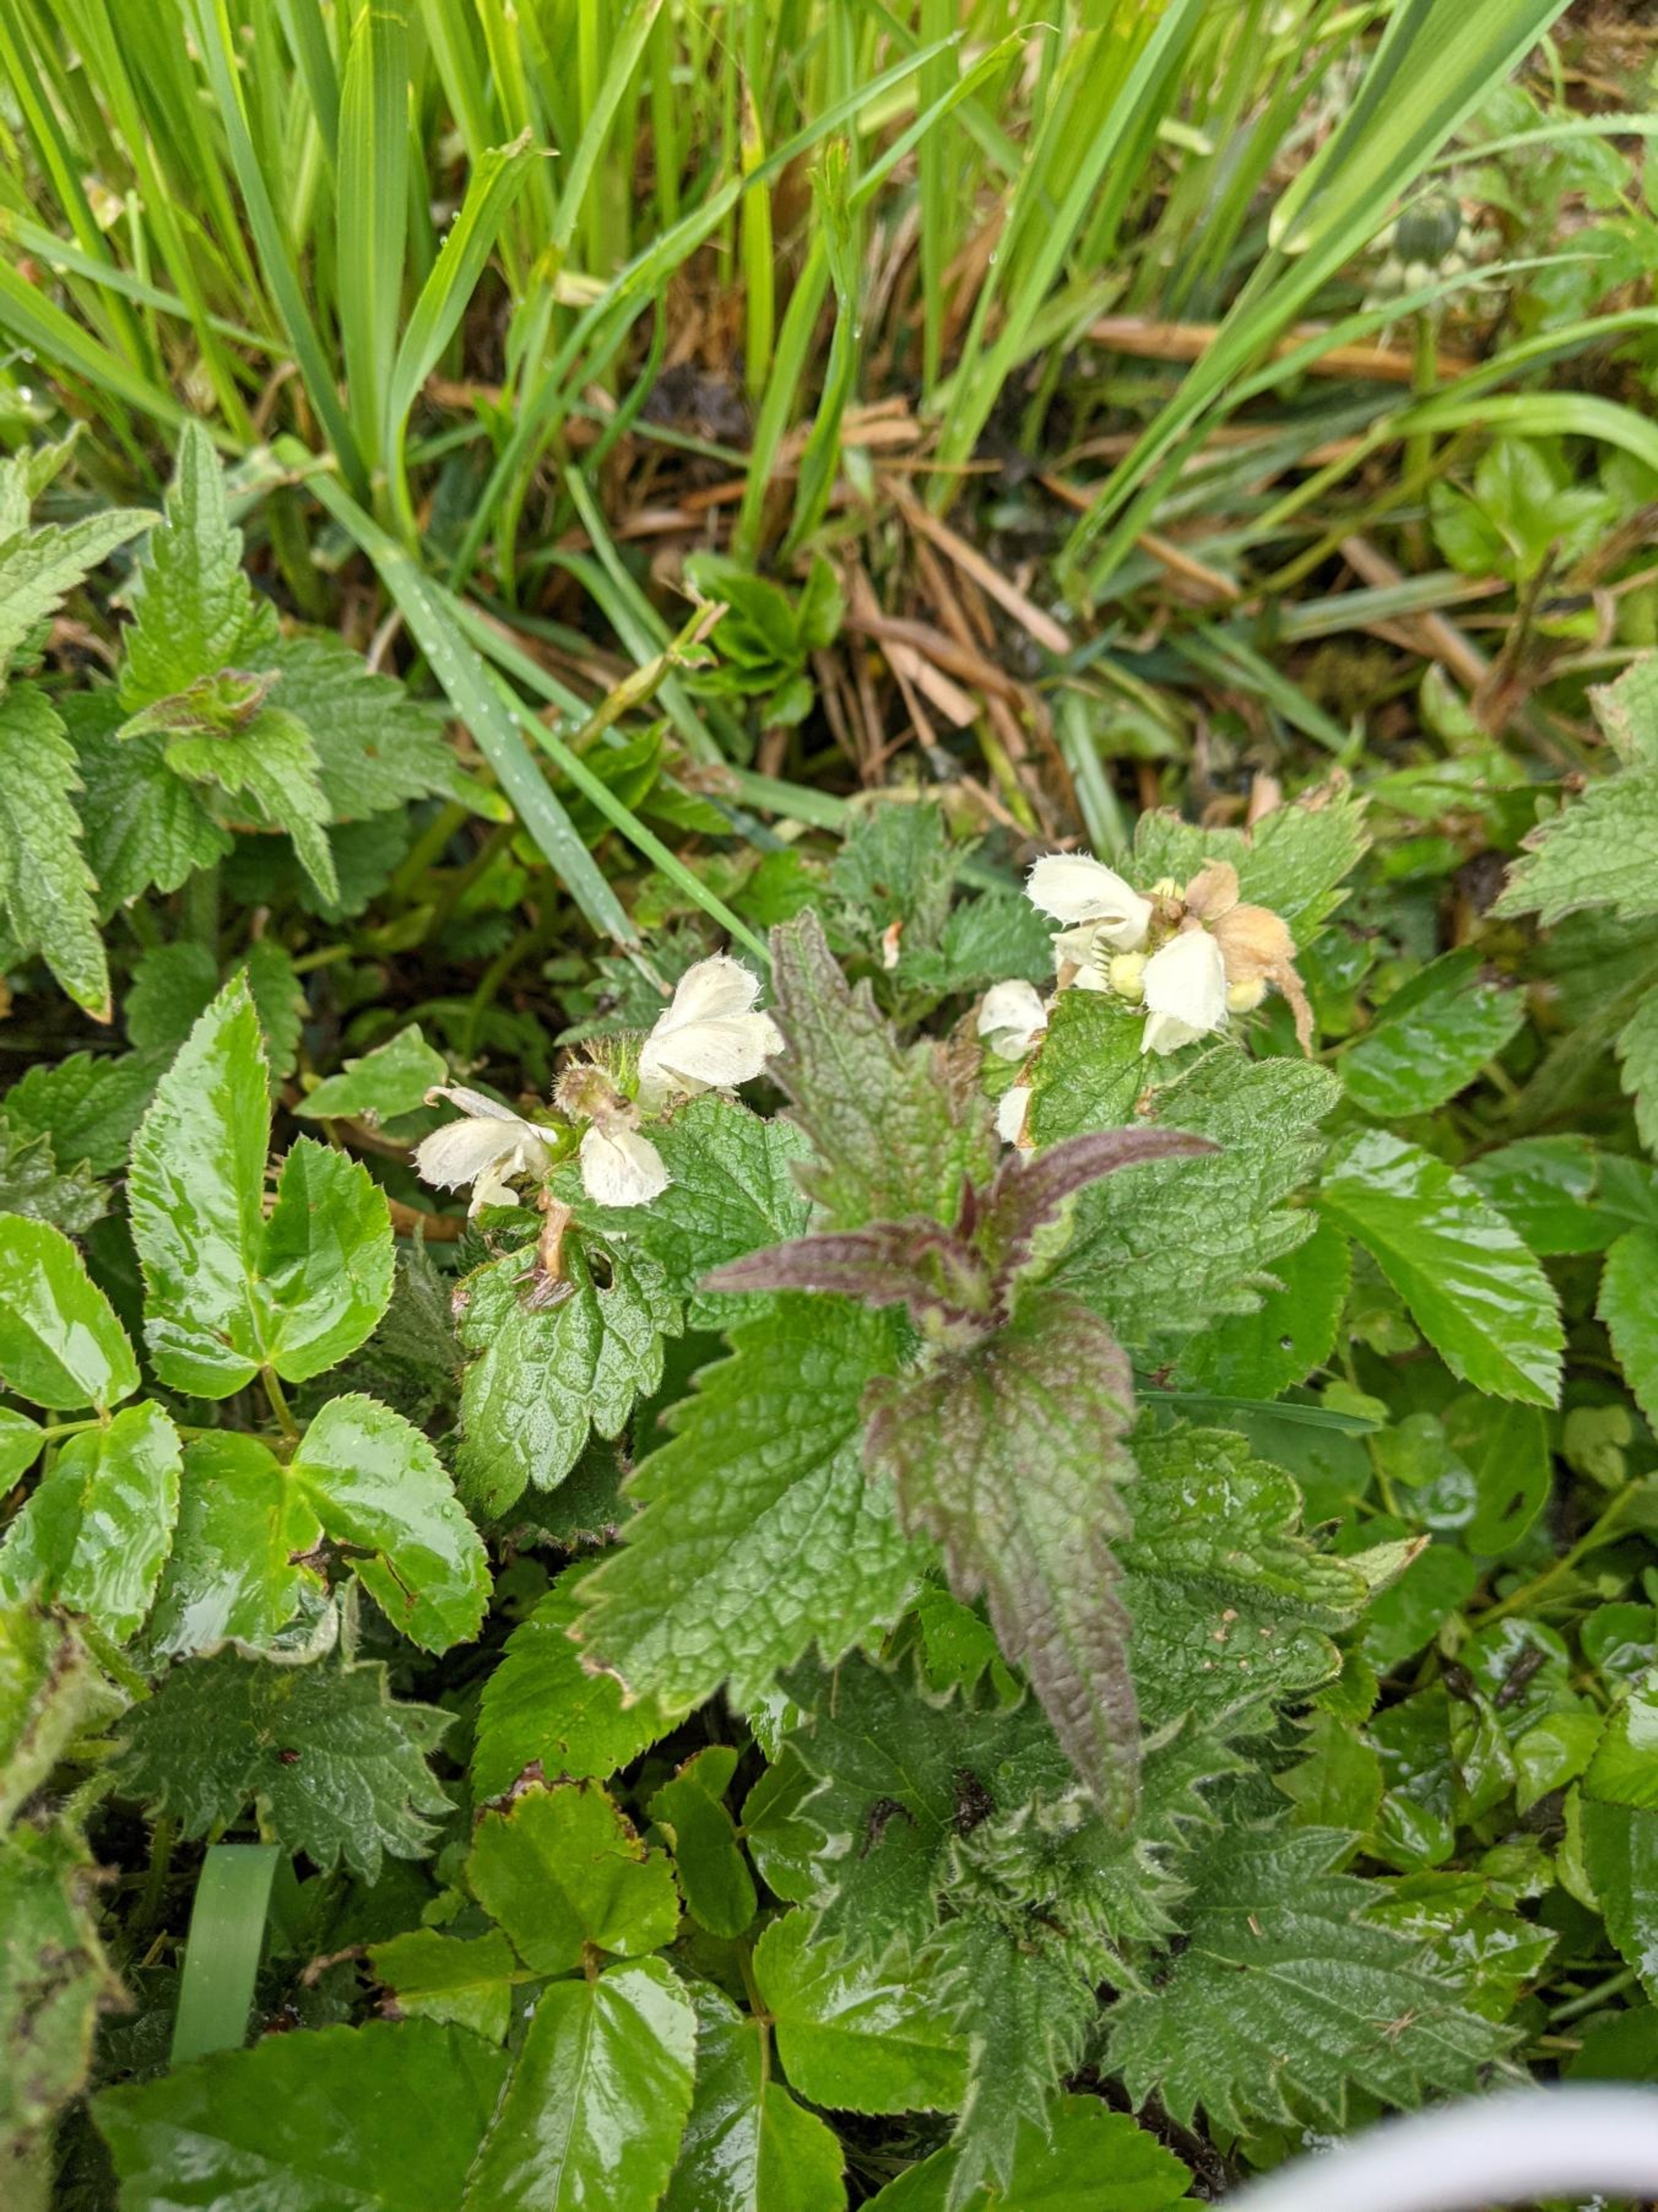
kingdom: Plantae
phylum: Tracheophyta
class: Magnoliopsida
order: Lamiales
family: Lamiaceae
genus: Lamium
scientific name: Lamium album
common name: Døvnælde
